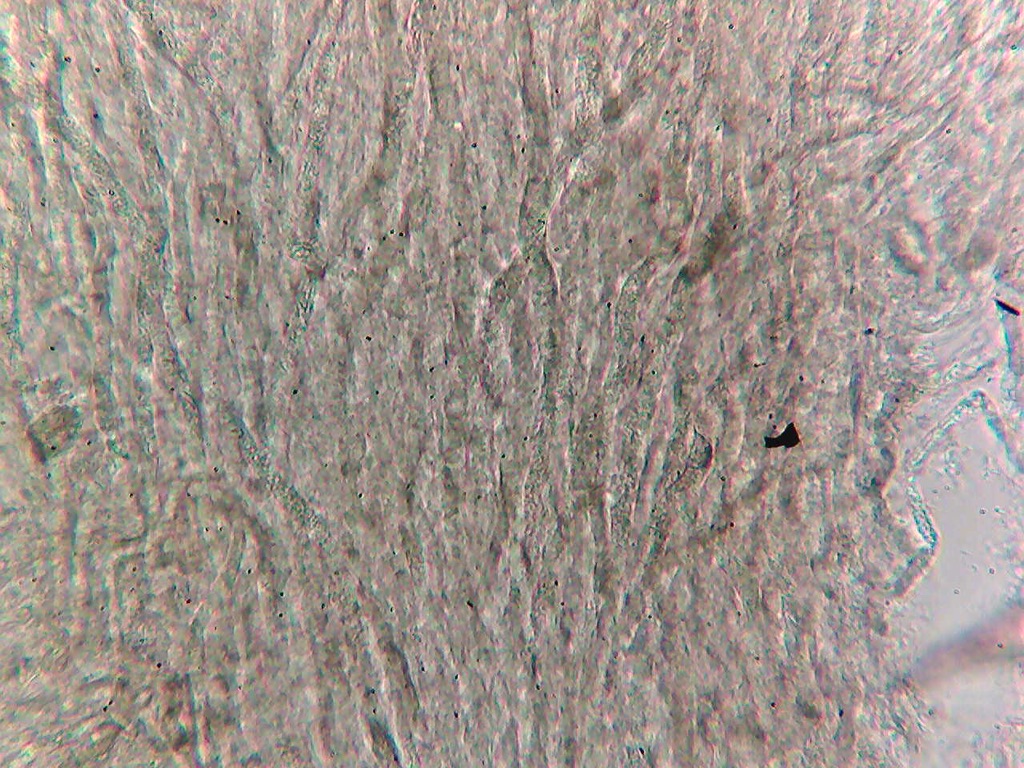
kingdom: Fungi
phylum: Basidiomycota
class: Agaricomycetes
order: Russulales
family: Auriscalpiaceae
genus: Lentinellus
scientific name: Lentinellus ursinus
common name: børstehåret savbladhat
